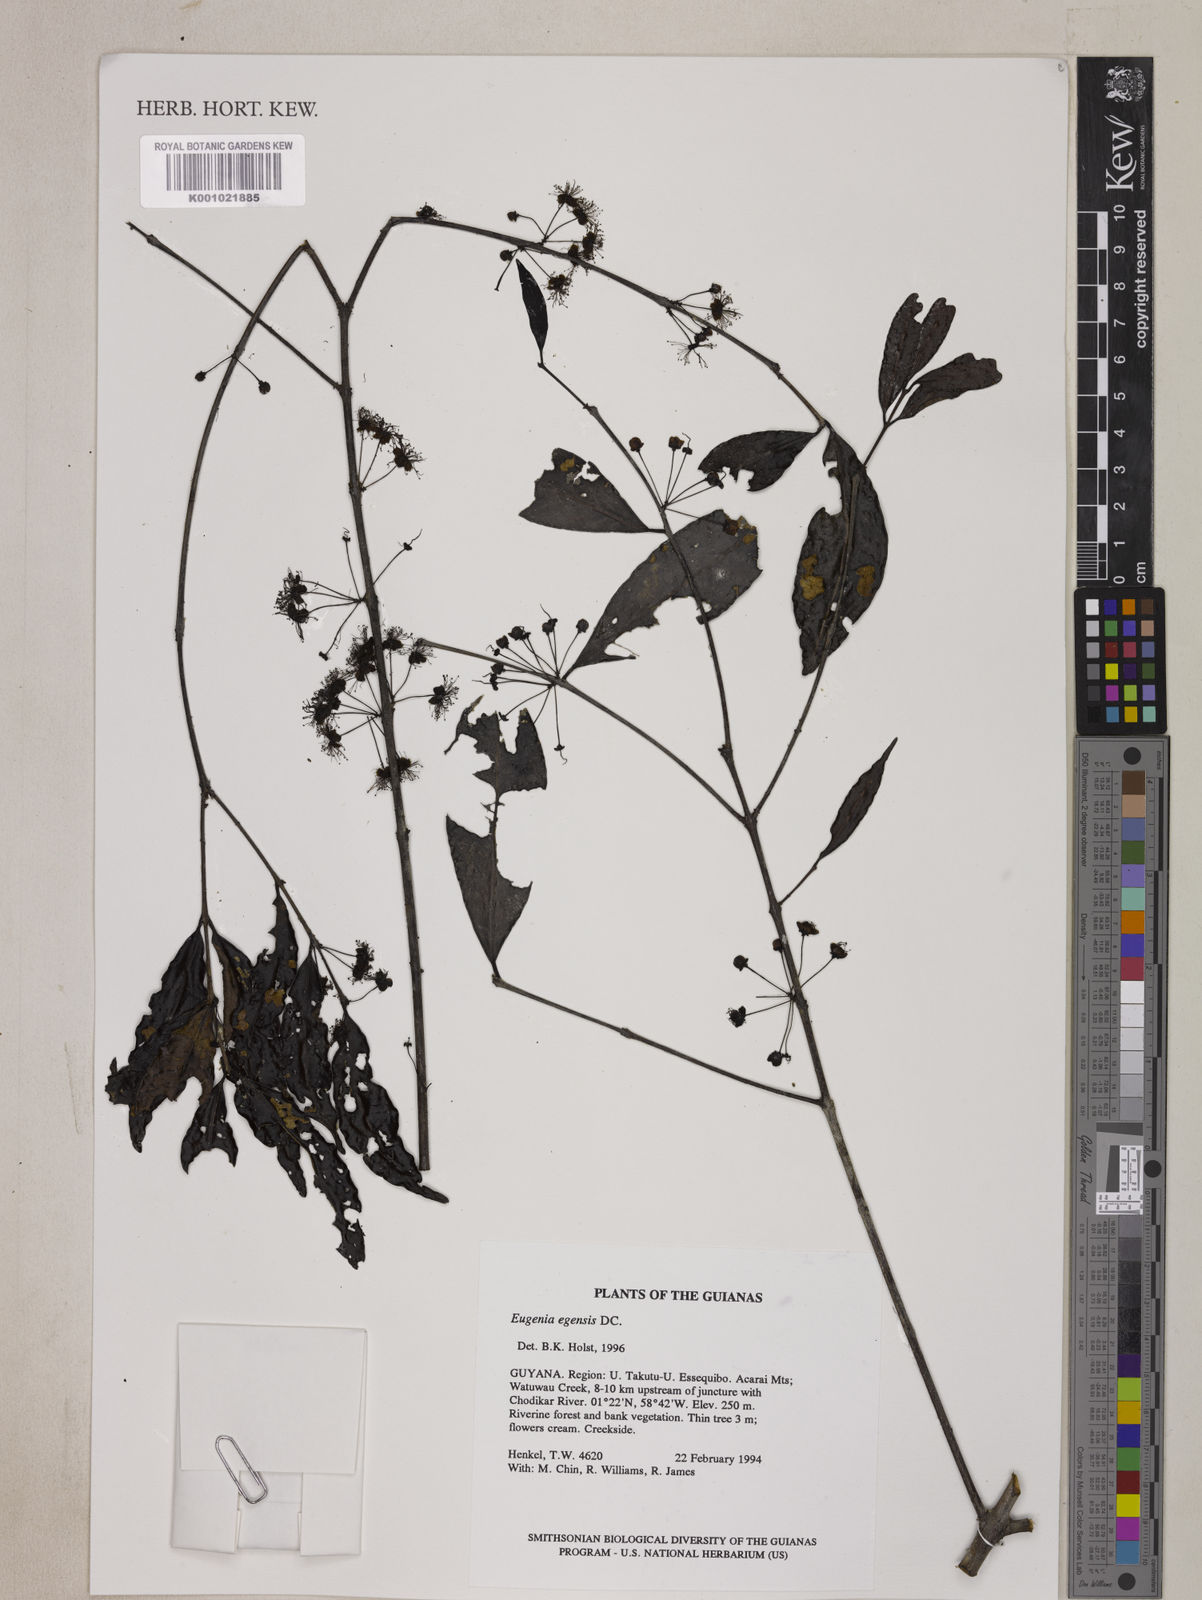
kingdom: Plantae
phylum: Tracheophyta
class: Magnoliopsida
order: Myrtales
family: Myrtaceae
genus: Eugenia
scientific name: Eugenia egensis
